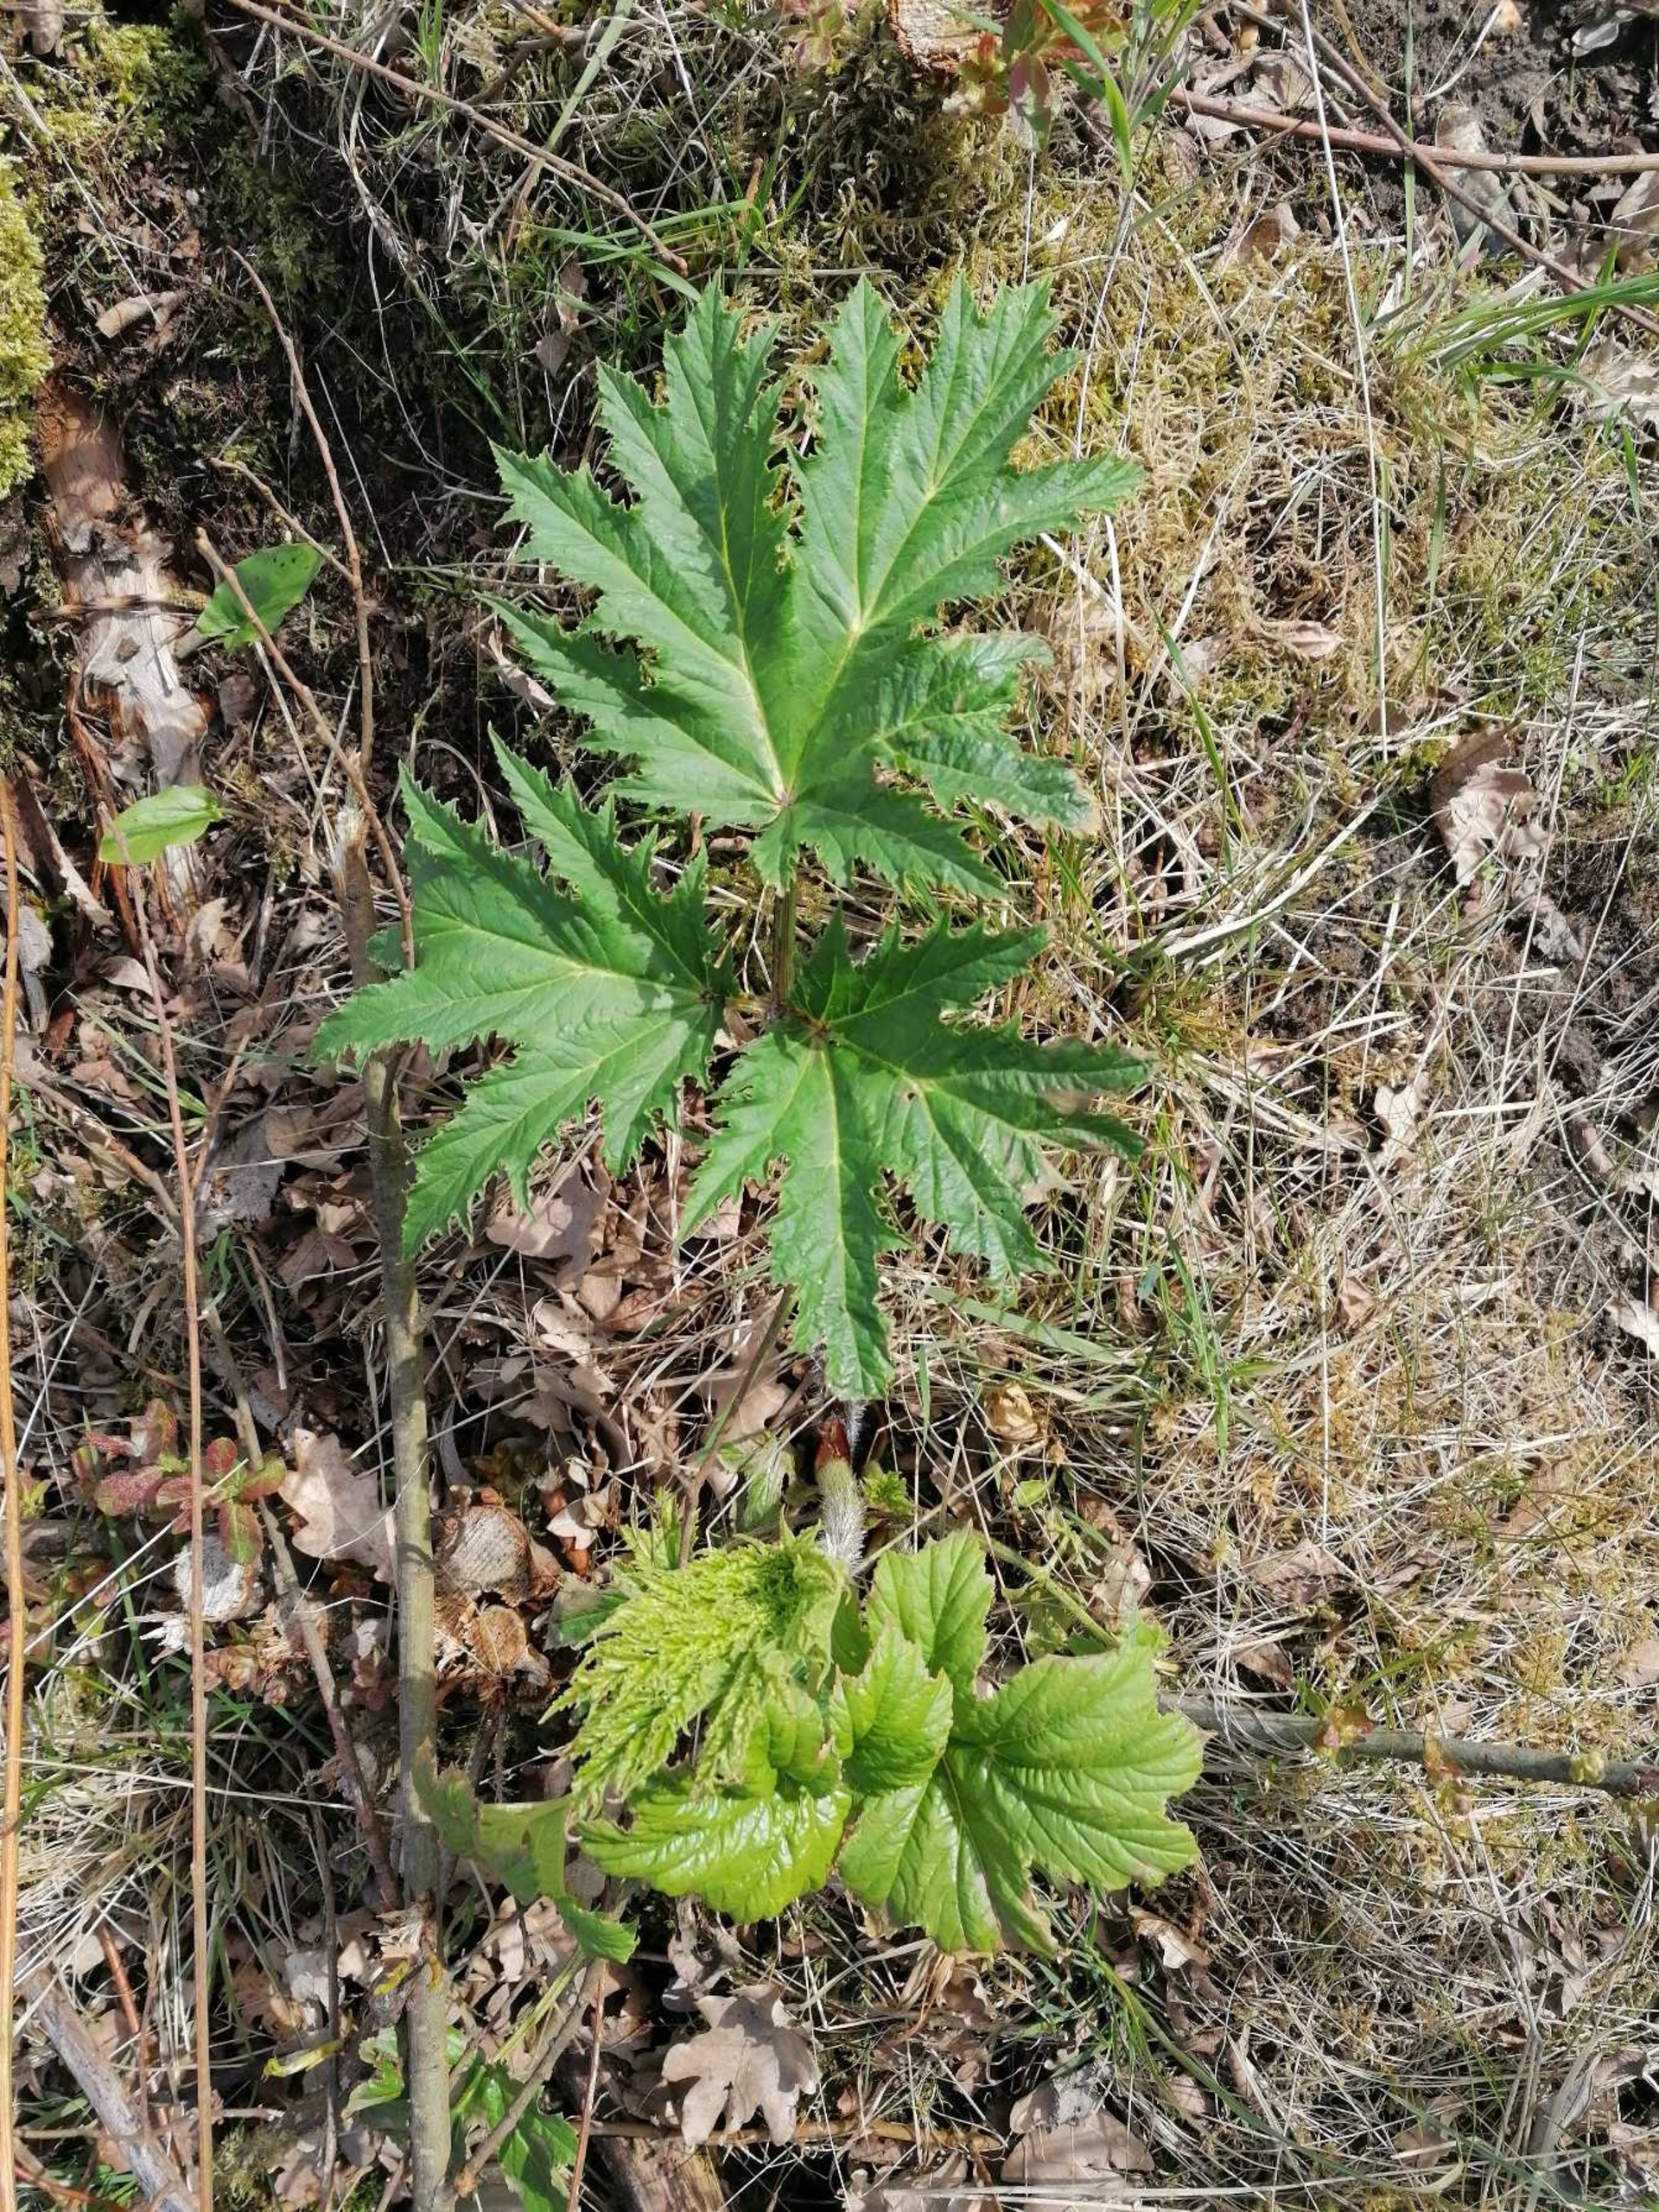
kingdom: Plantae
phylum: Tracheophyta
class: Magnoliopsida
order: Apiales
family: Apiaceae
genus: Heracleum
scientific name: Heracleum mantegazzianum
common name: Kæmpe-bjørneklo
